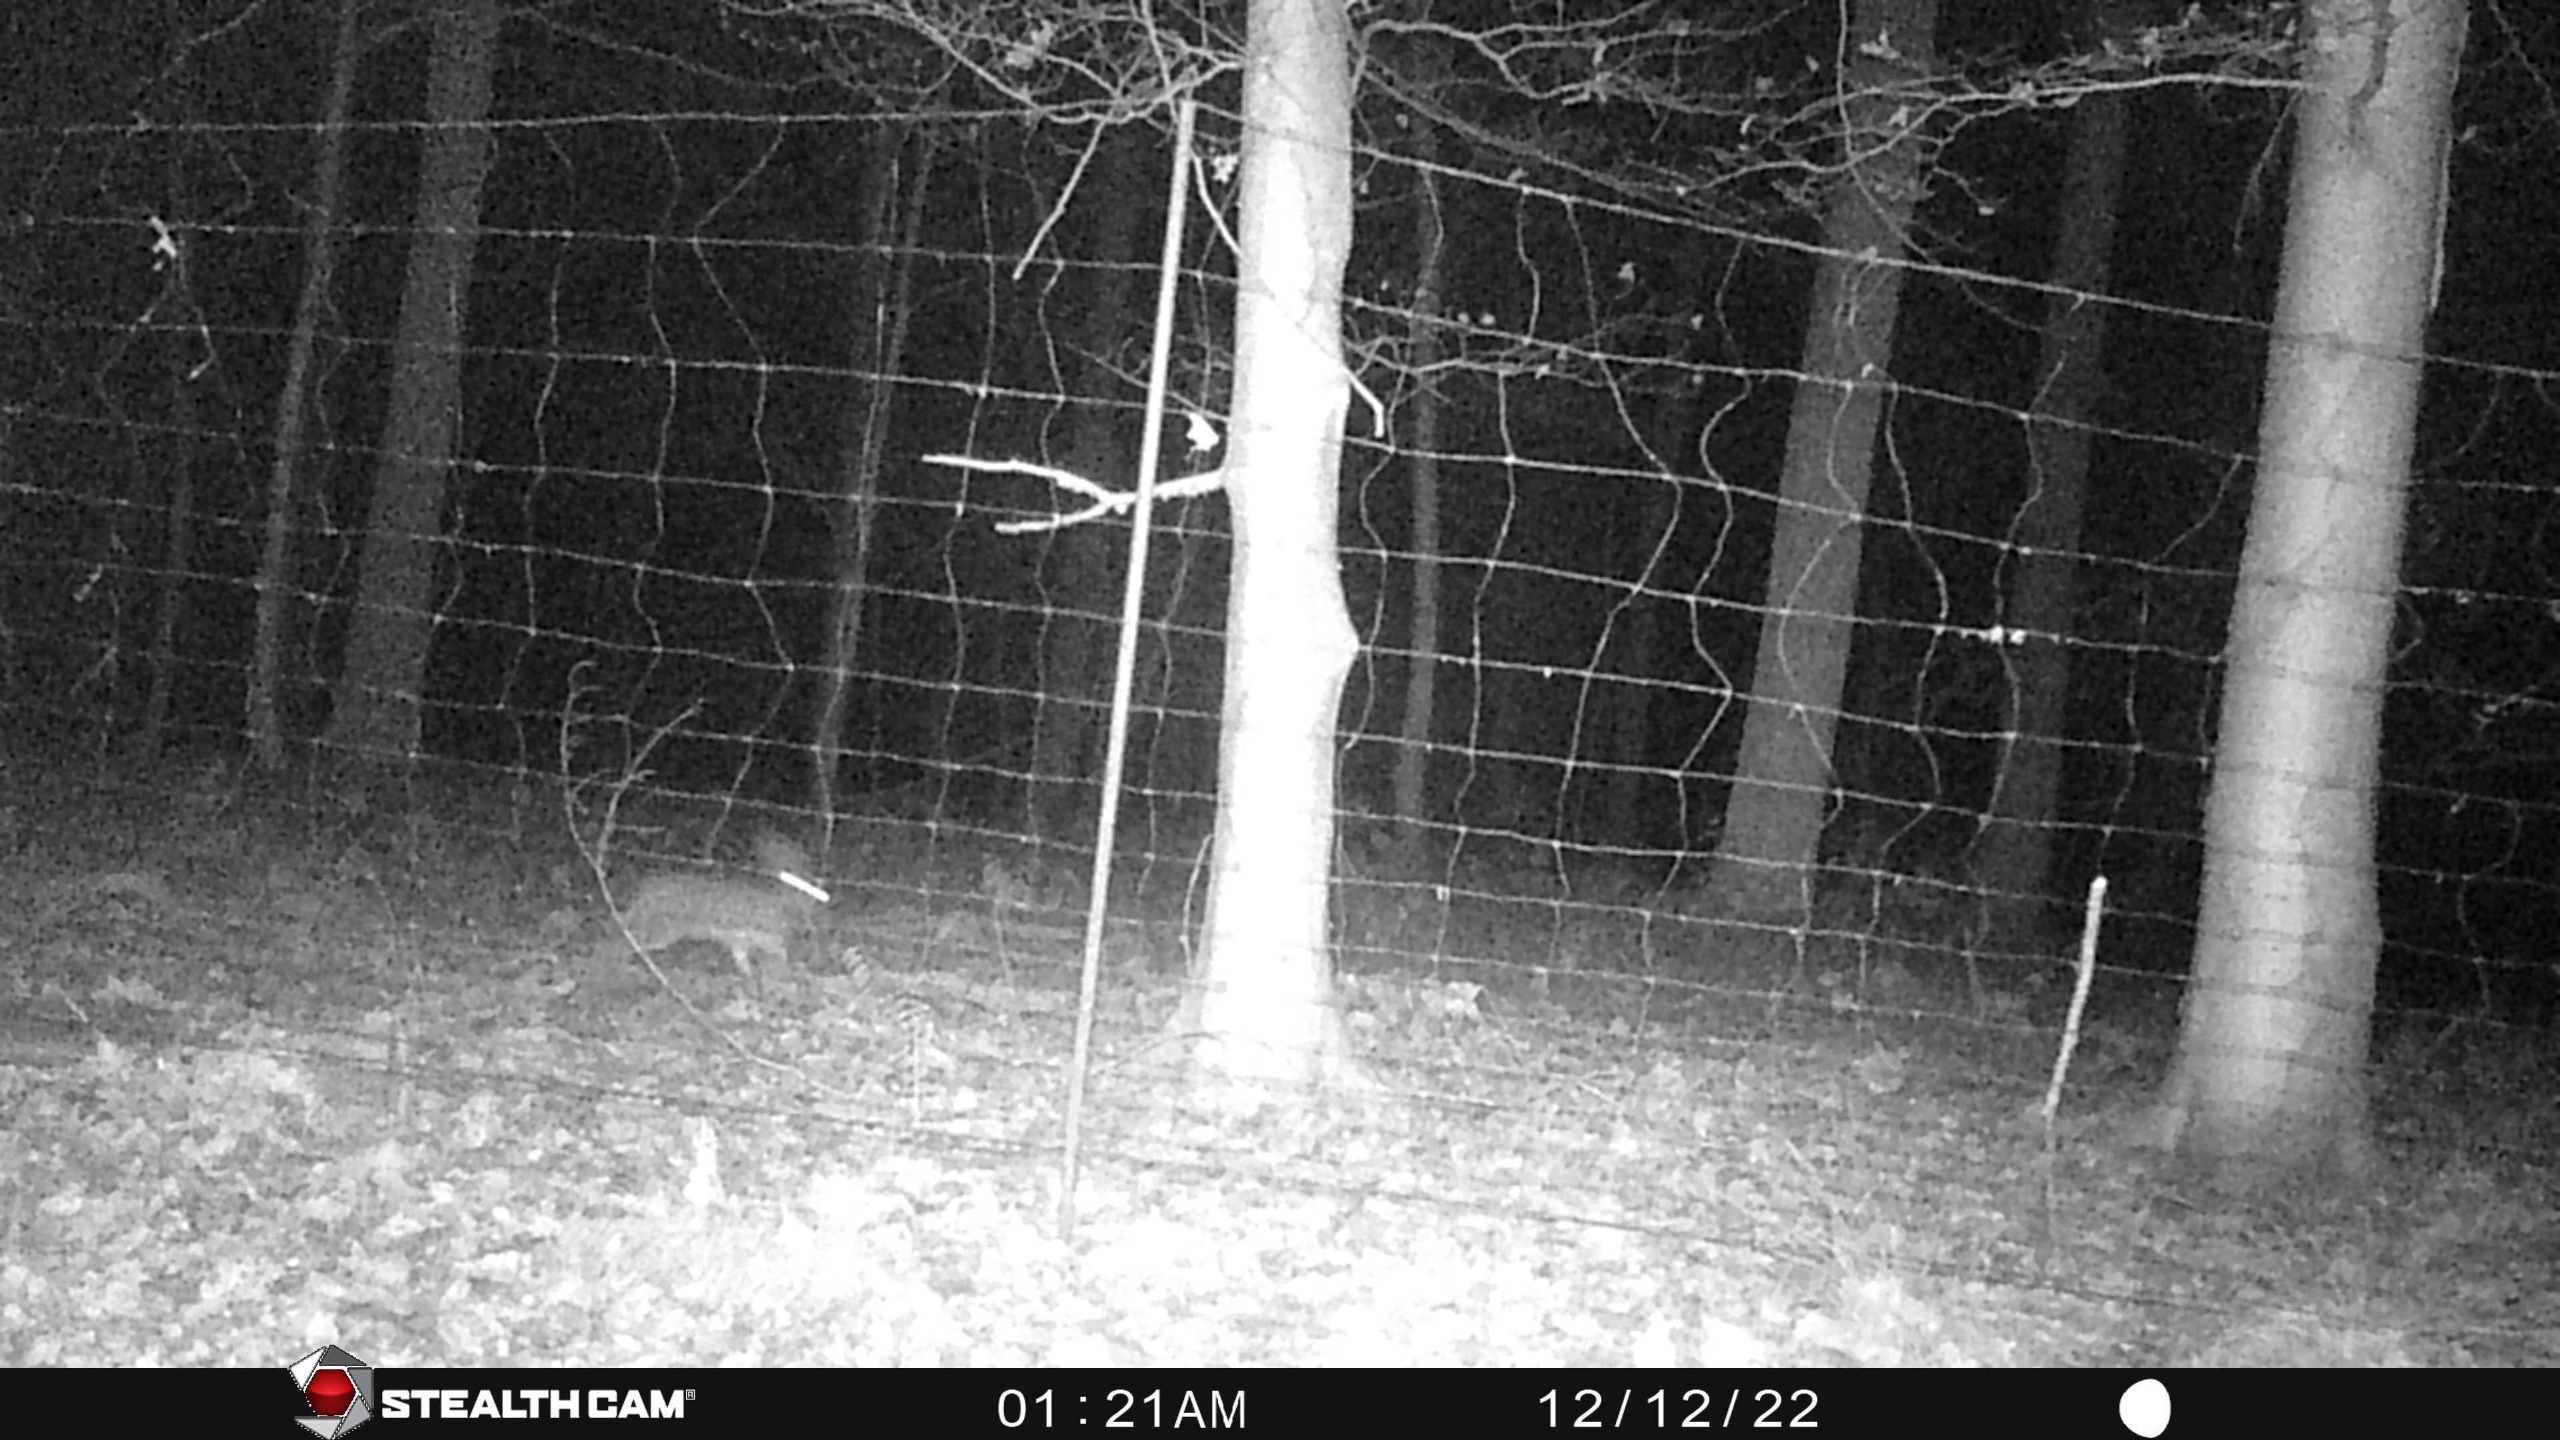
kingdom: Animalia
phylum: Chordata
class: Mammalia
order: Lagomorpha
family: Leporidae
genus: Lepus
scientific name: Lepus europaeus
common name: Hare
